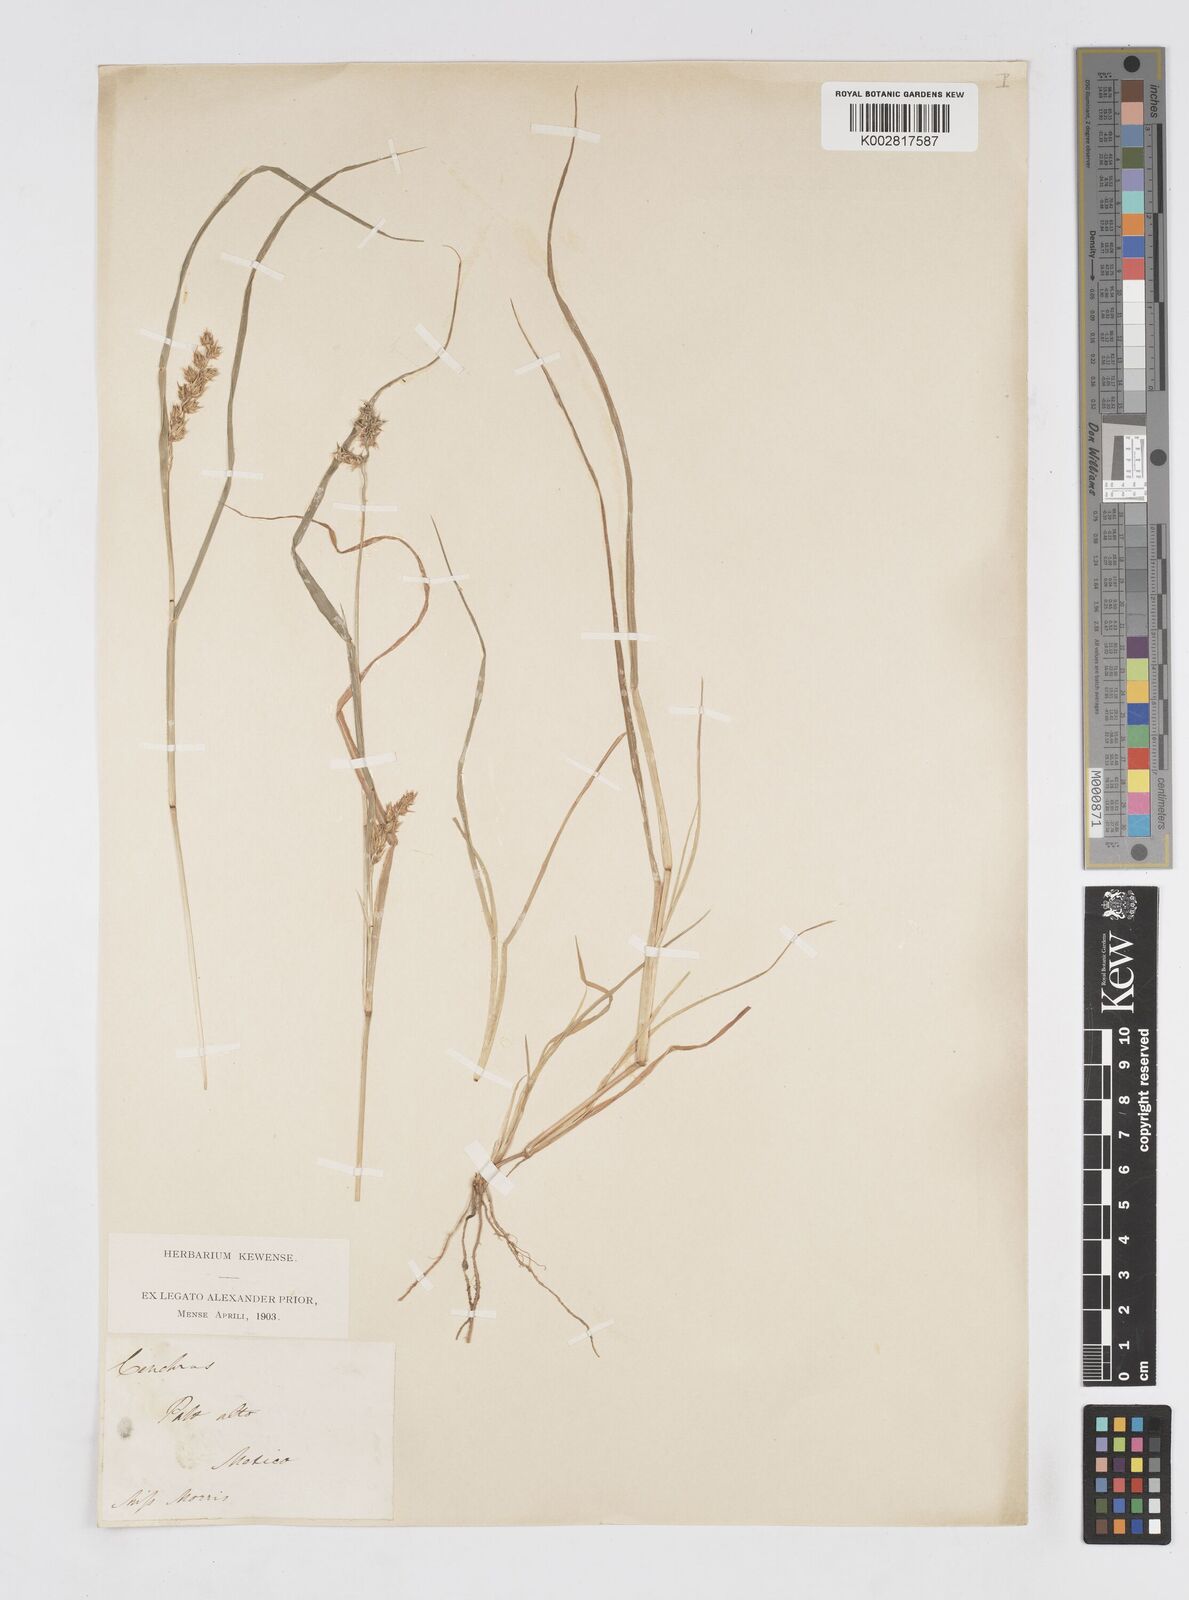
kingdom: Plantae
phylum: Tracheophyta
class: Liliopsida
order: Poales
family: Poaceae
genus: Cenchrus
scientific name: Cenchrus spinifex
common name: Coast sandbur
